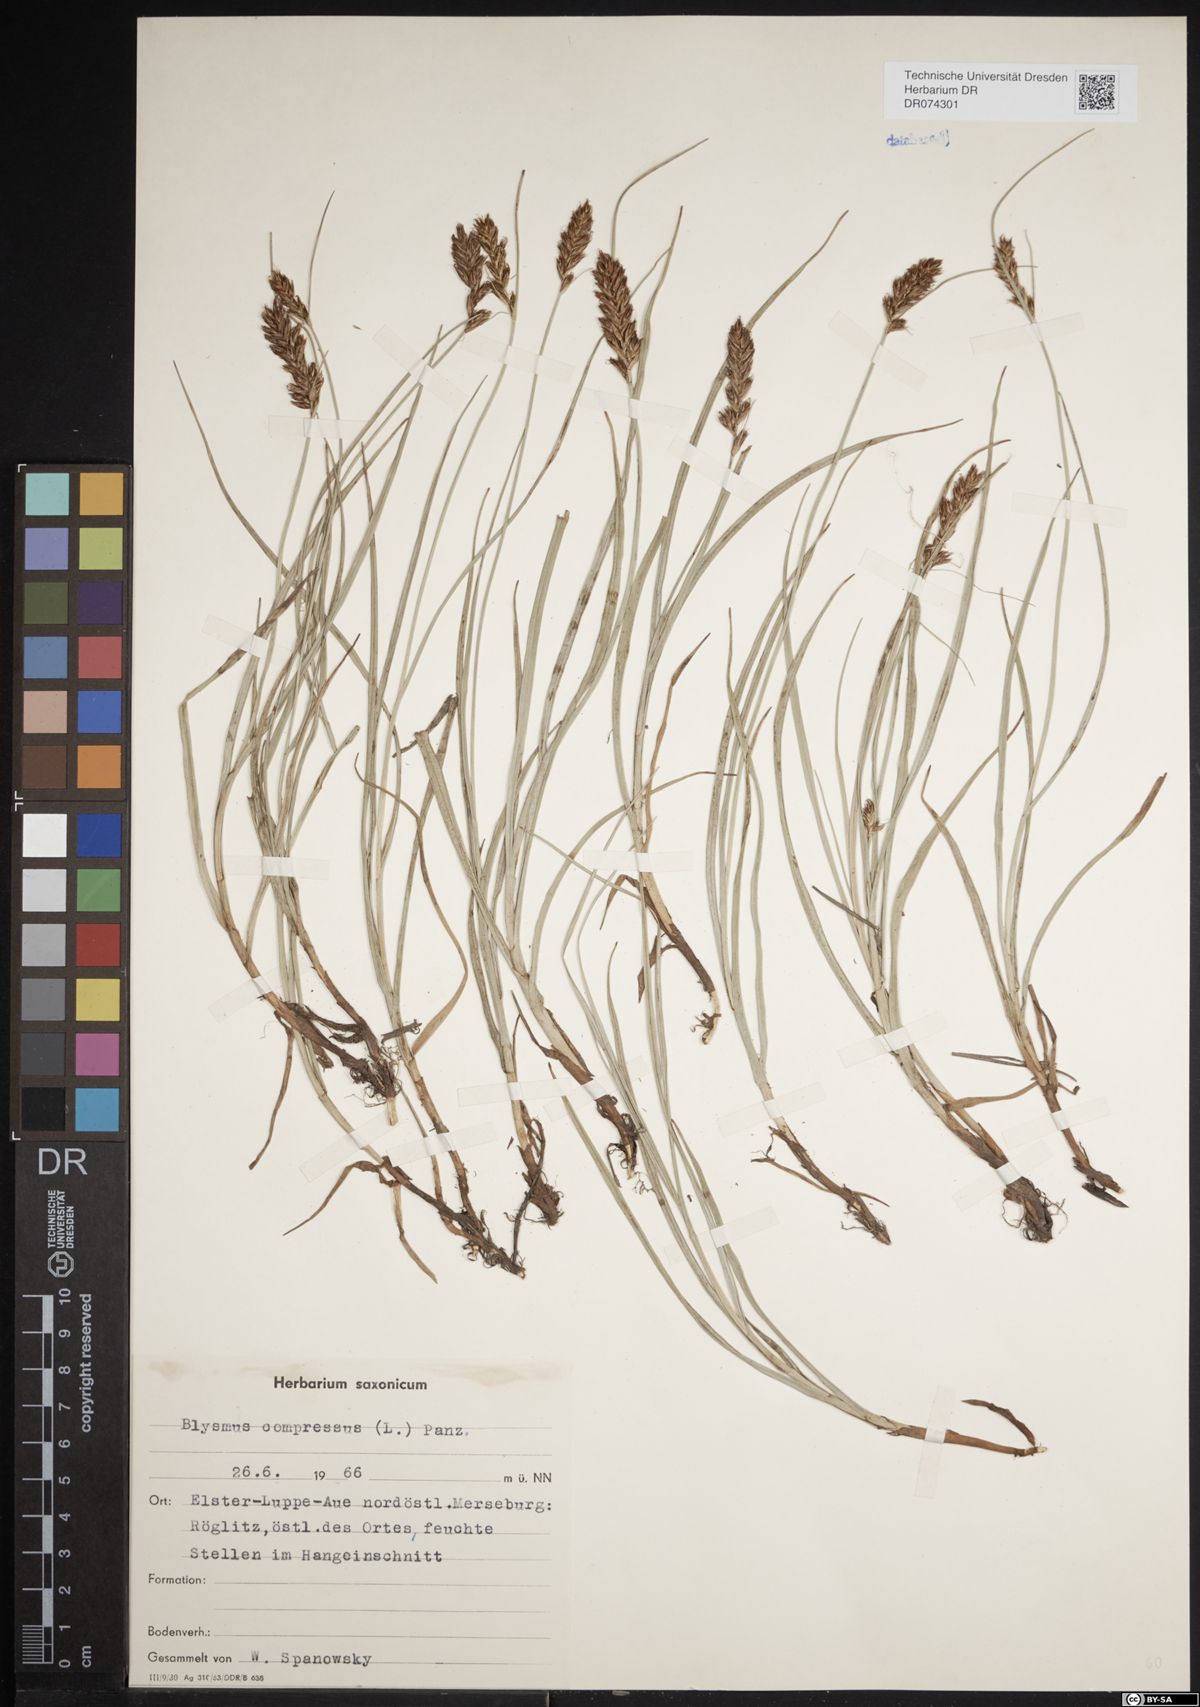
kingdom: Plantae
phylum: Tracheophyta
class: Liliopsida
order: Poales
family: Cyperaceae
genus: Blysmus
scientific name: Blysmus compressus
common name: Flat-sedge
